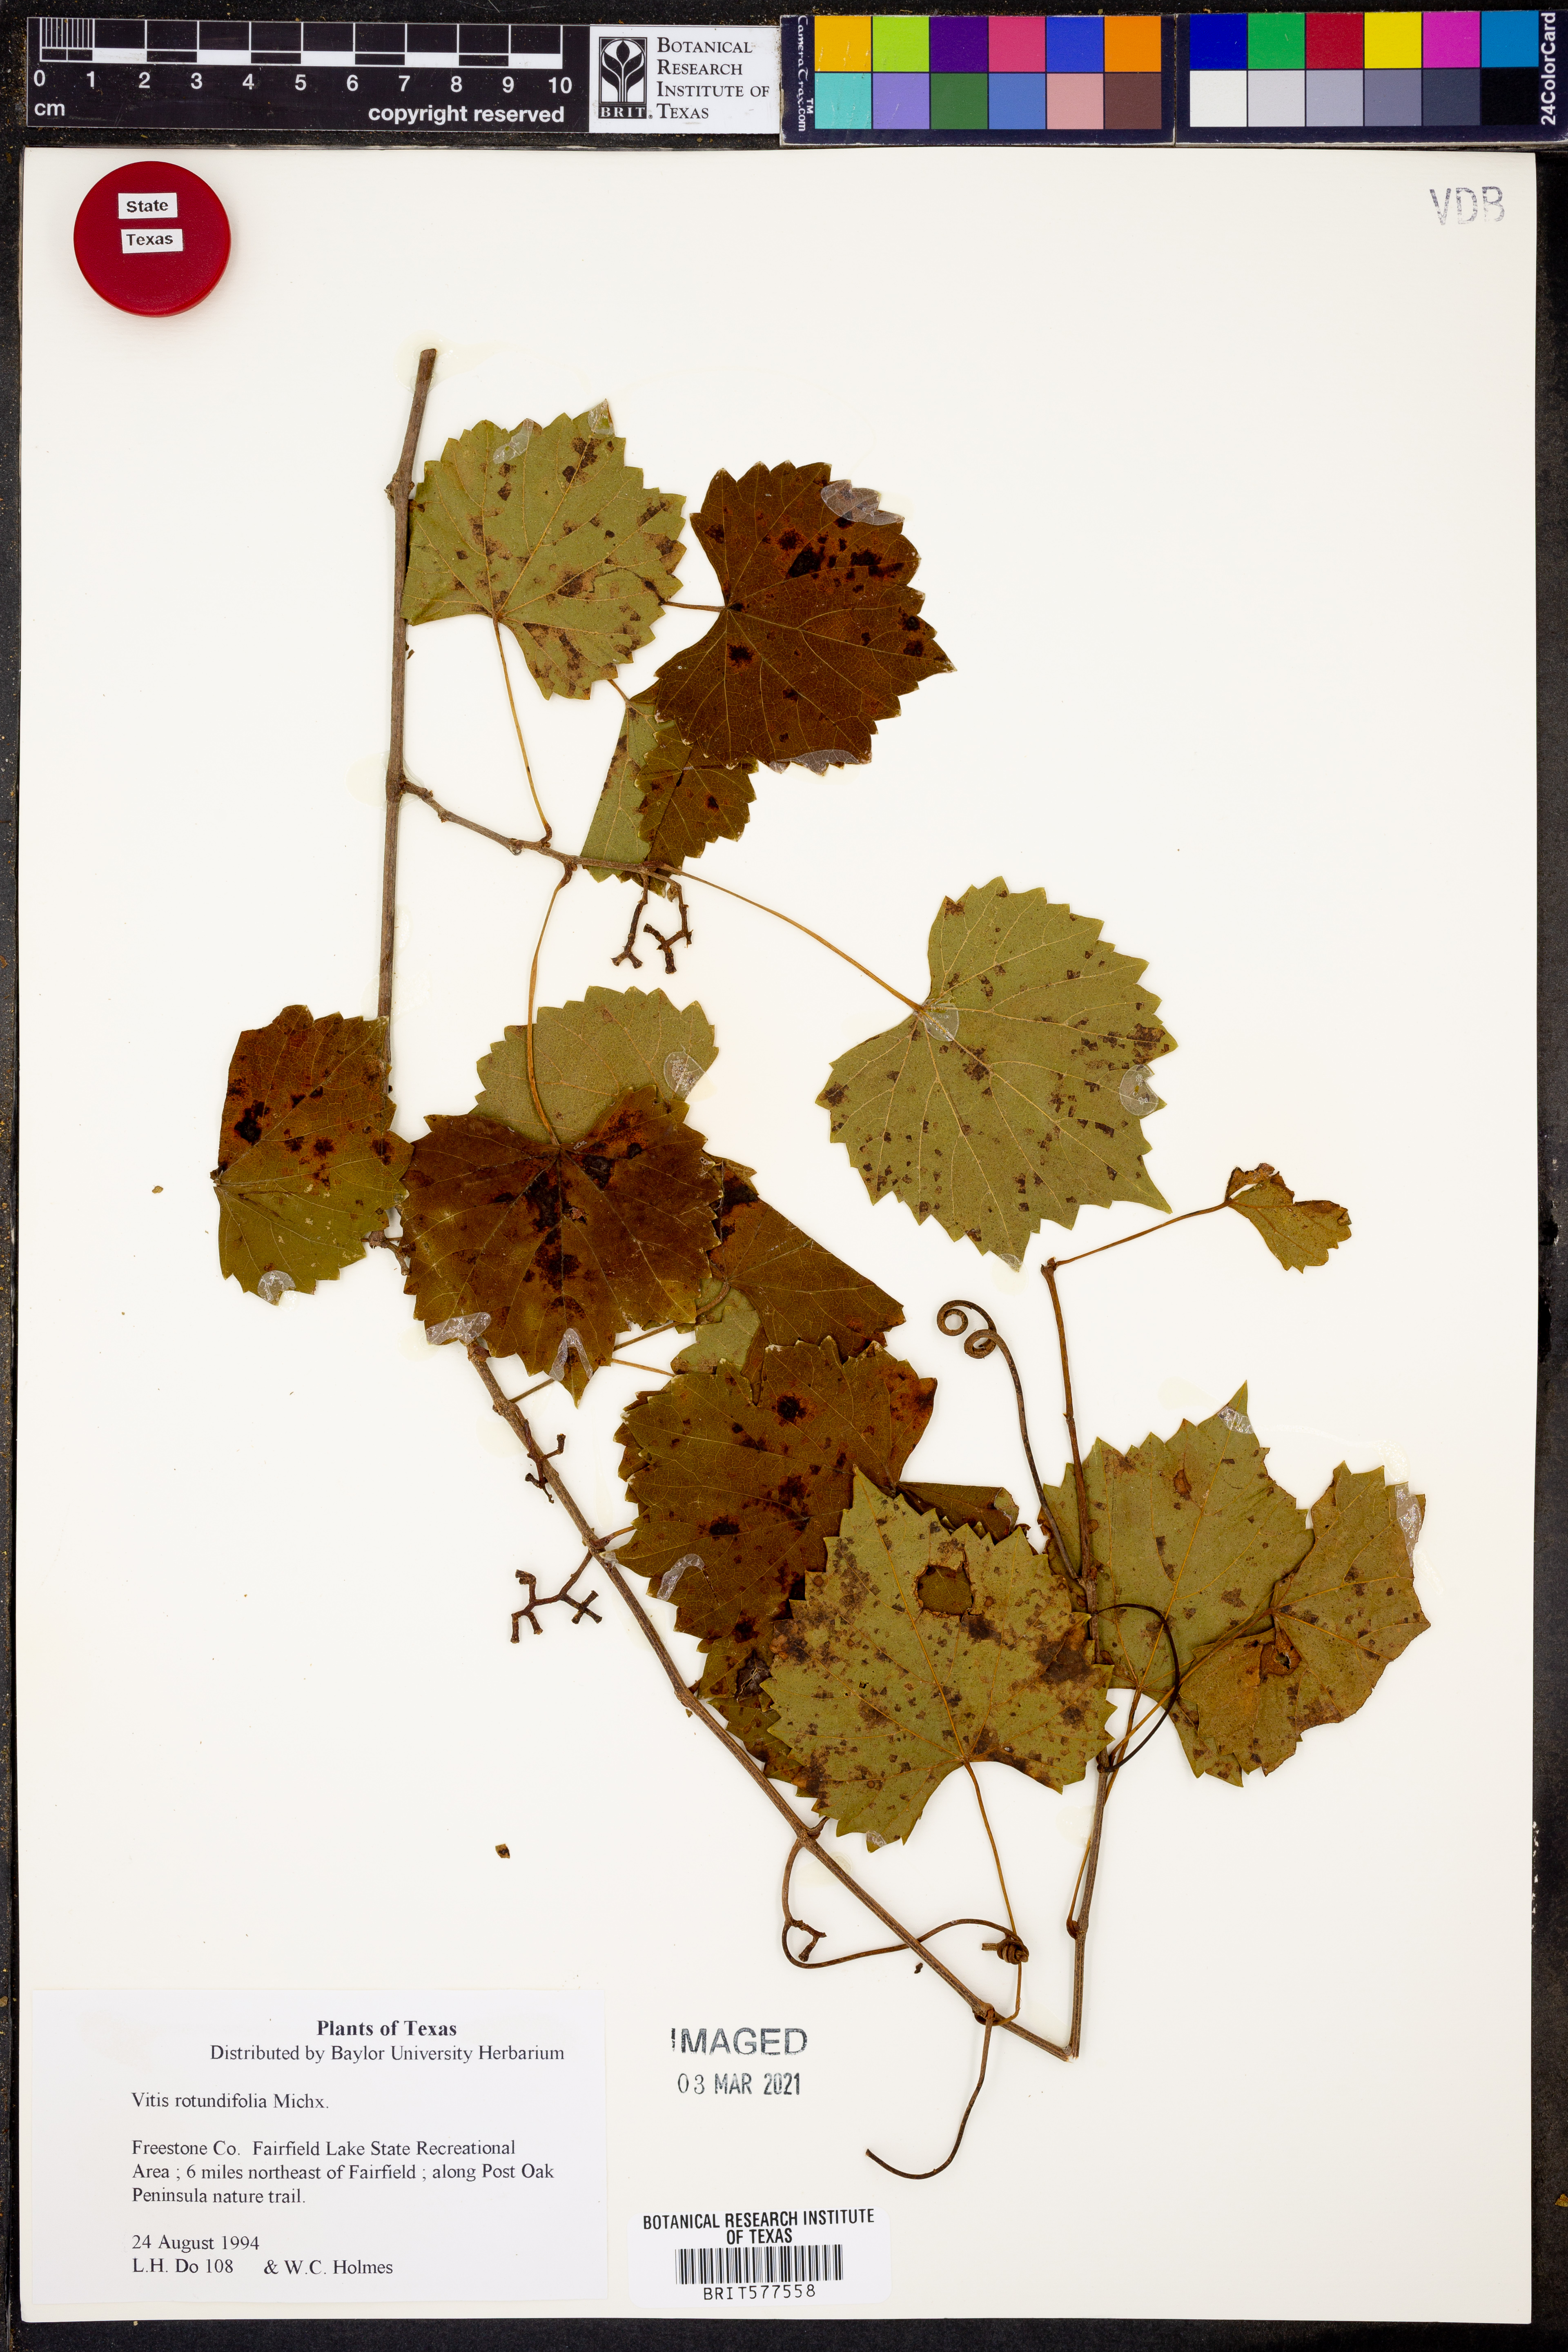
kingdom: Plantae
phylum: Tracheophyta
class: Magnoliopsida
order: Vitales
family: Vitaceae
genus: Vitis
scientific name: Vitis rotundifolia
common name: Muscadine grape
